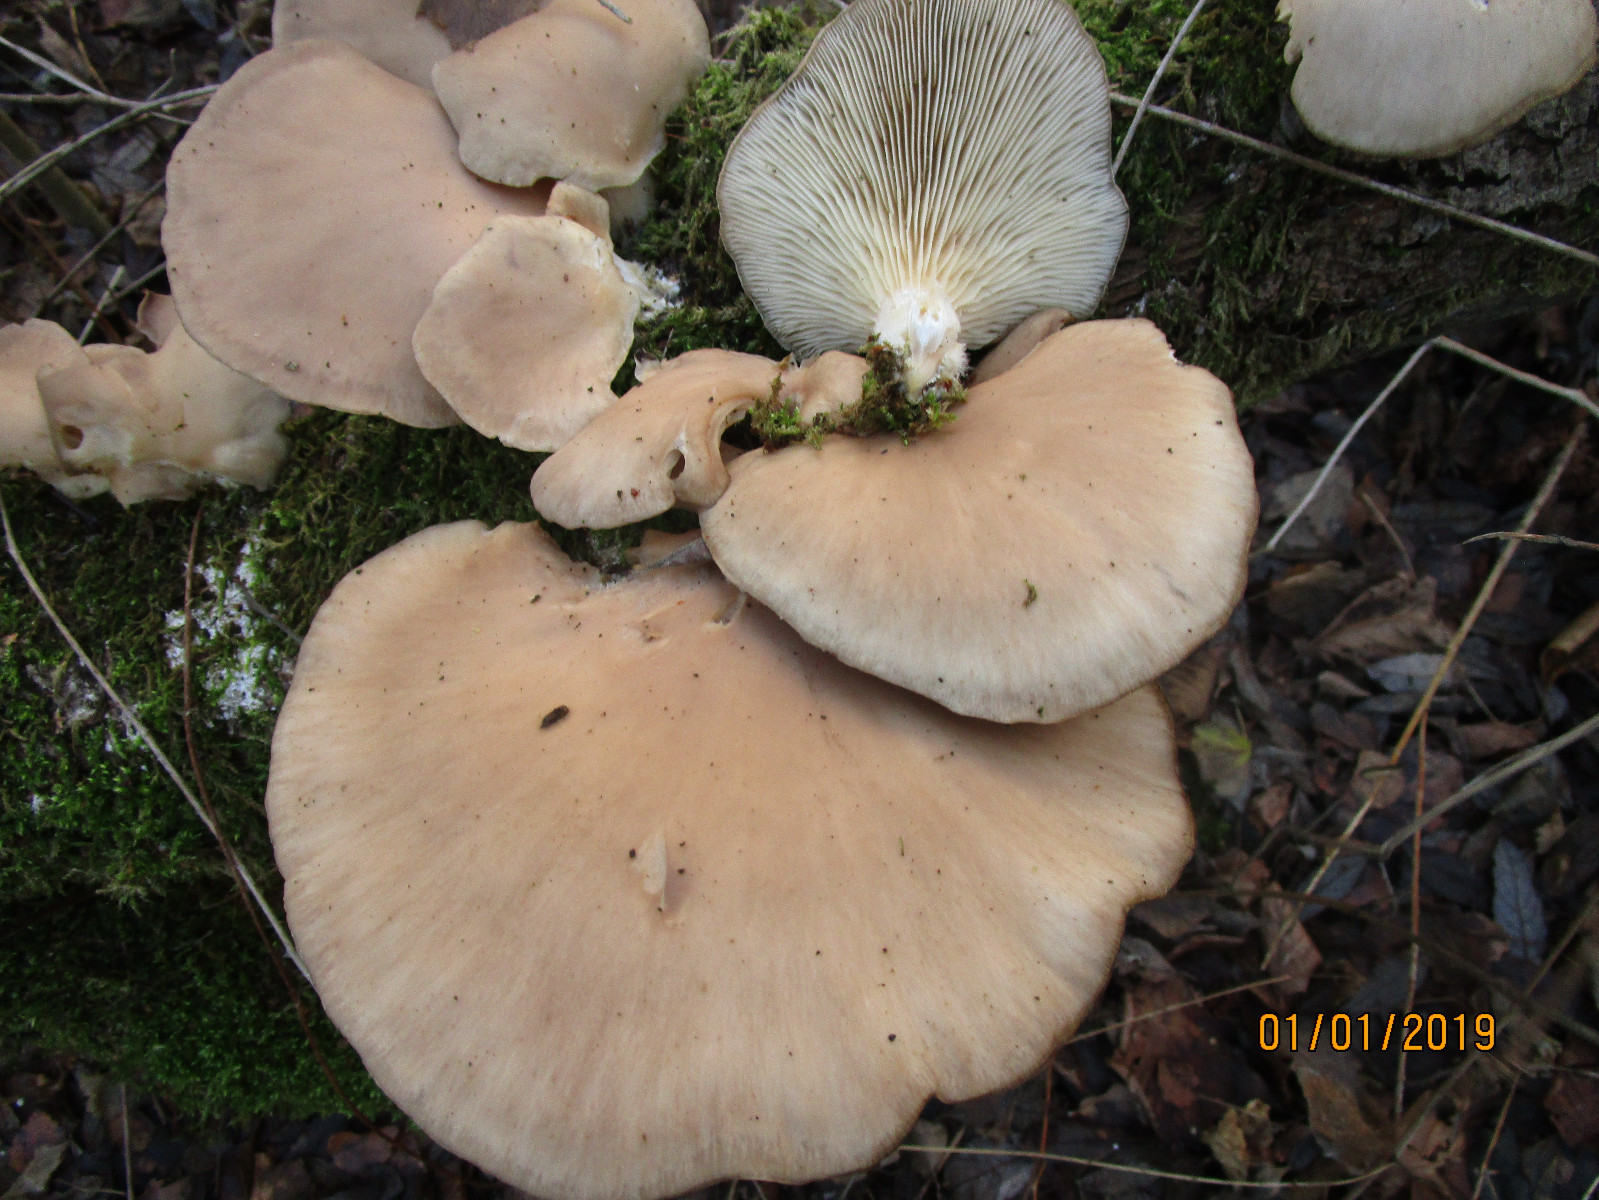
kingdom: Fungi
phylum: Basidiomycota
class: Agaricomycetes
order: Agaricales
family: Pleurotaceae
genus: Pleurotus
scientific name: Pleurotus ostreatus
